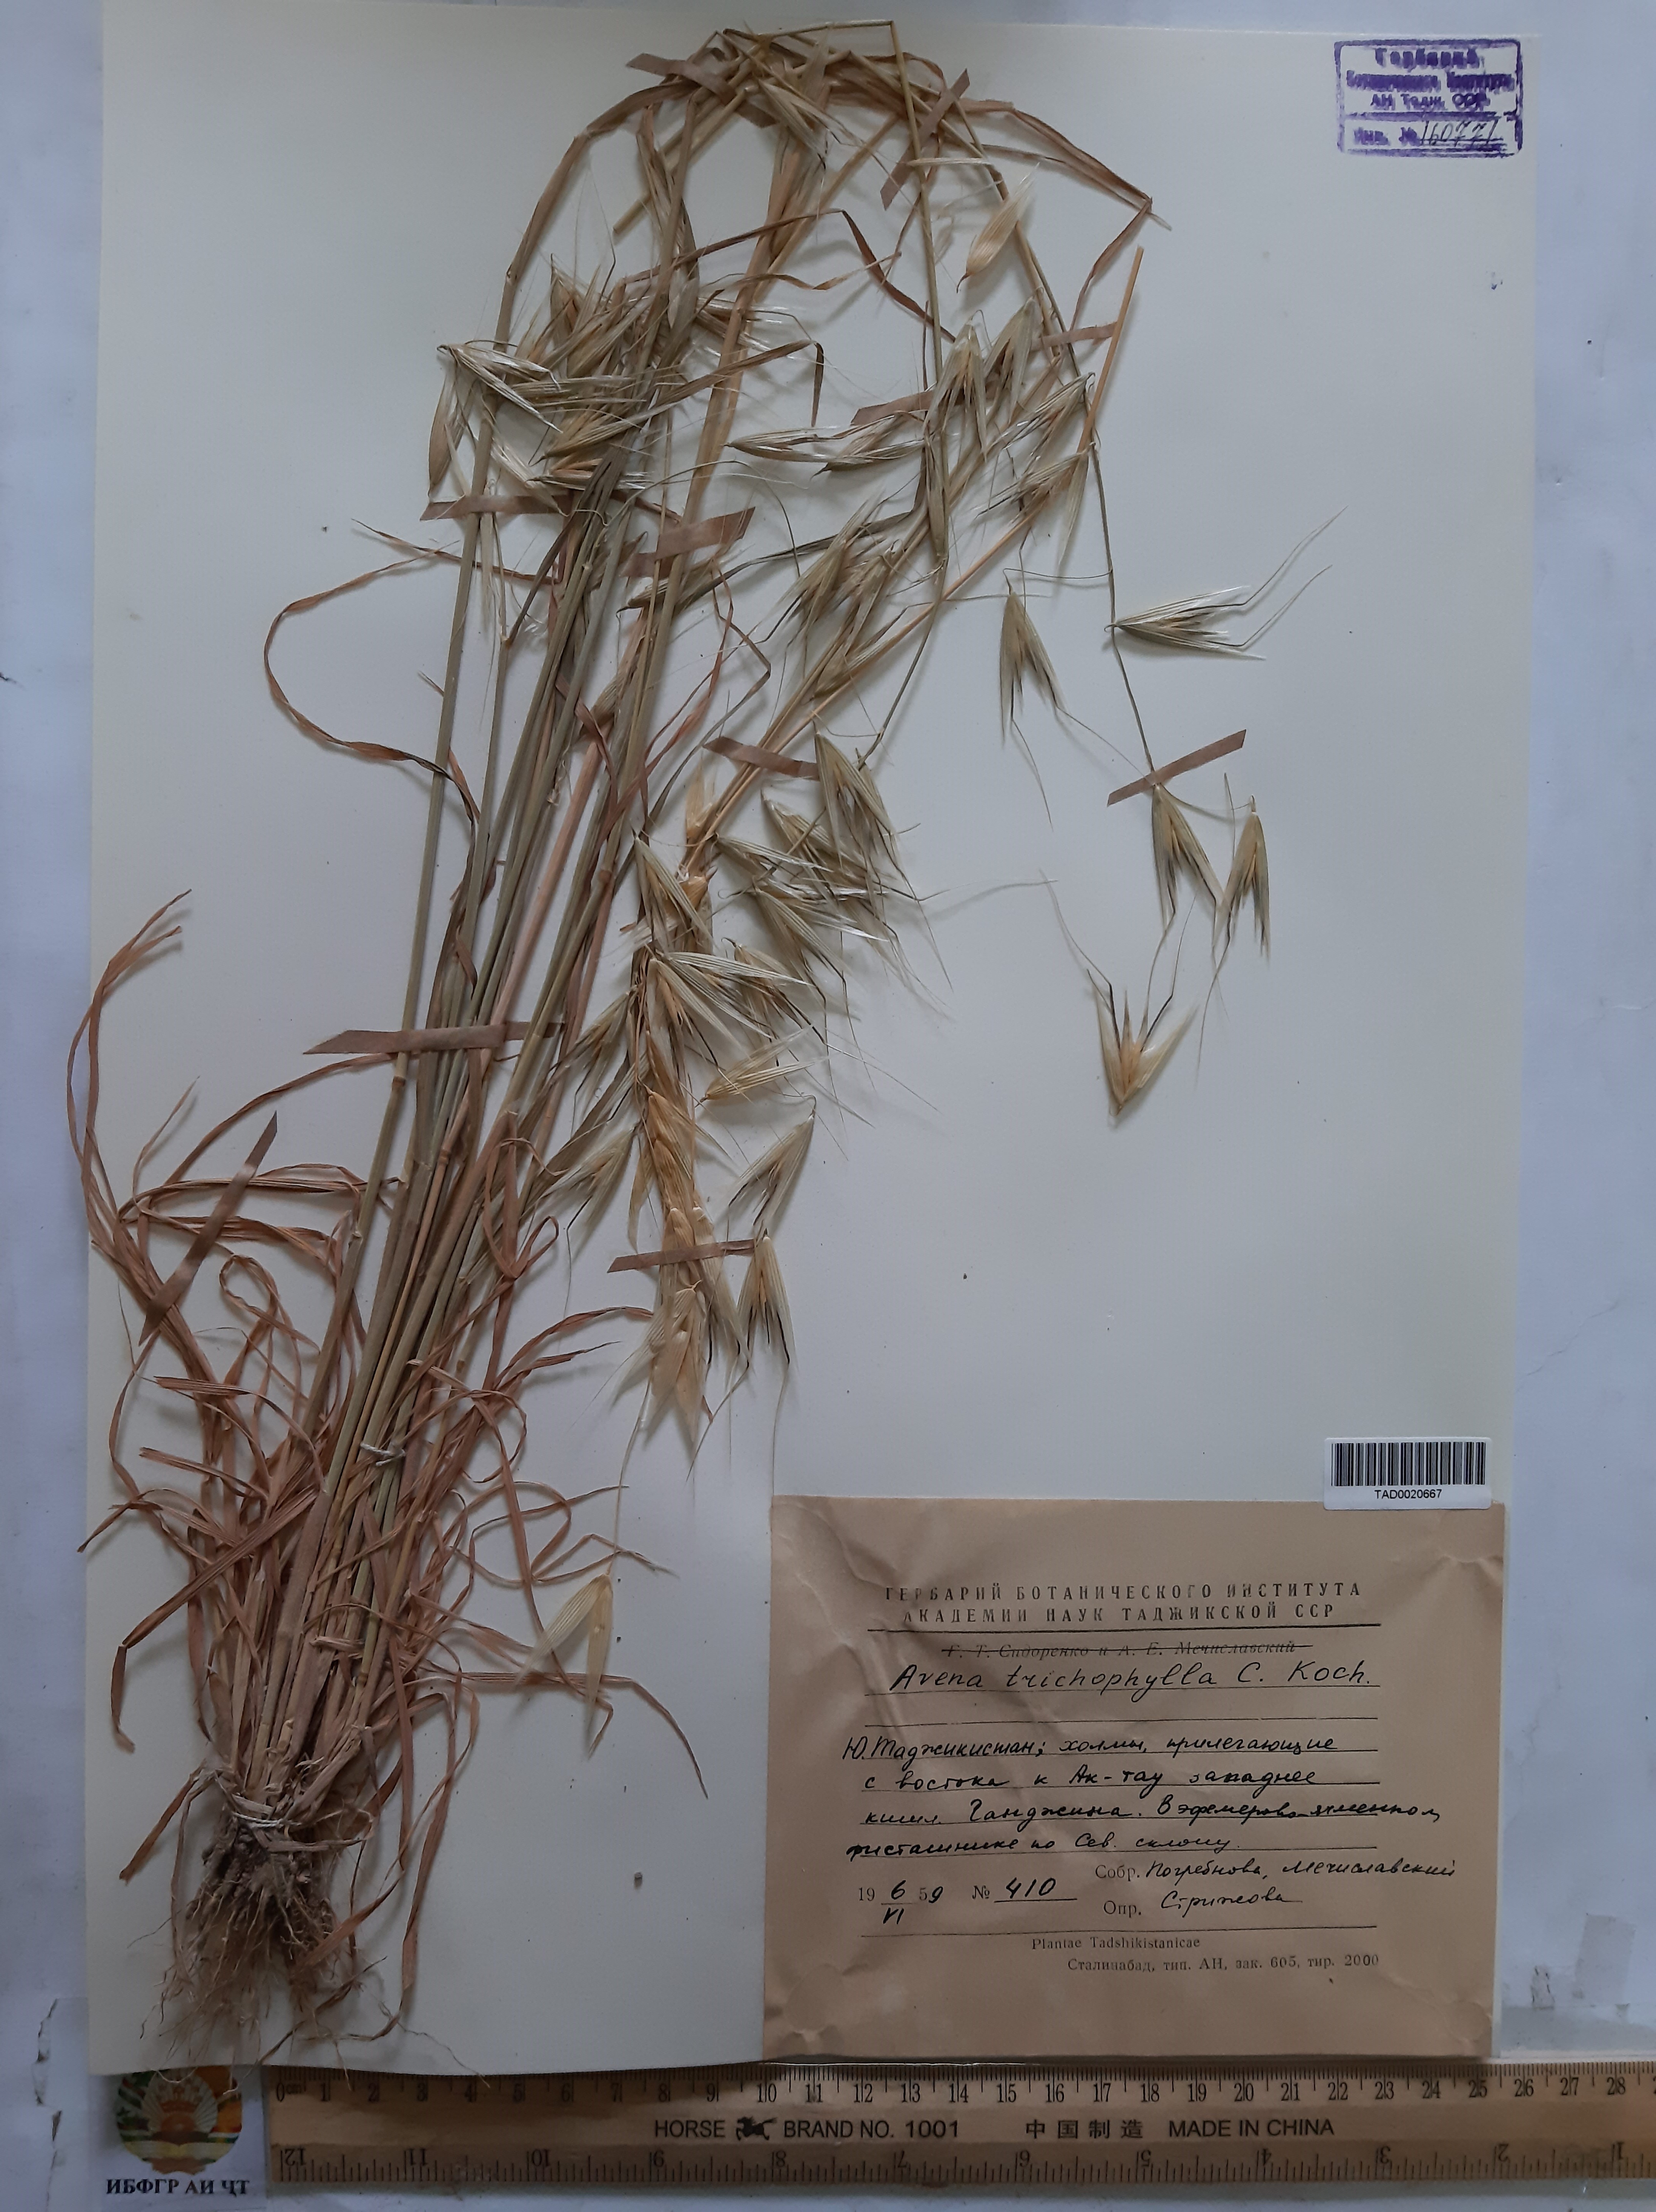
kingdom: Plantae
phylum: Tracheophyta
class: Liliopsida
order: Poales
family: Poaceae
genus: Avena
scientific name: Avena sterilis
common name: Animated oat
